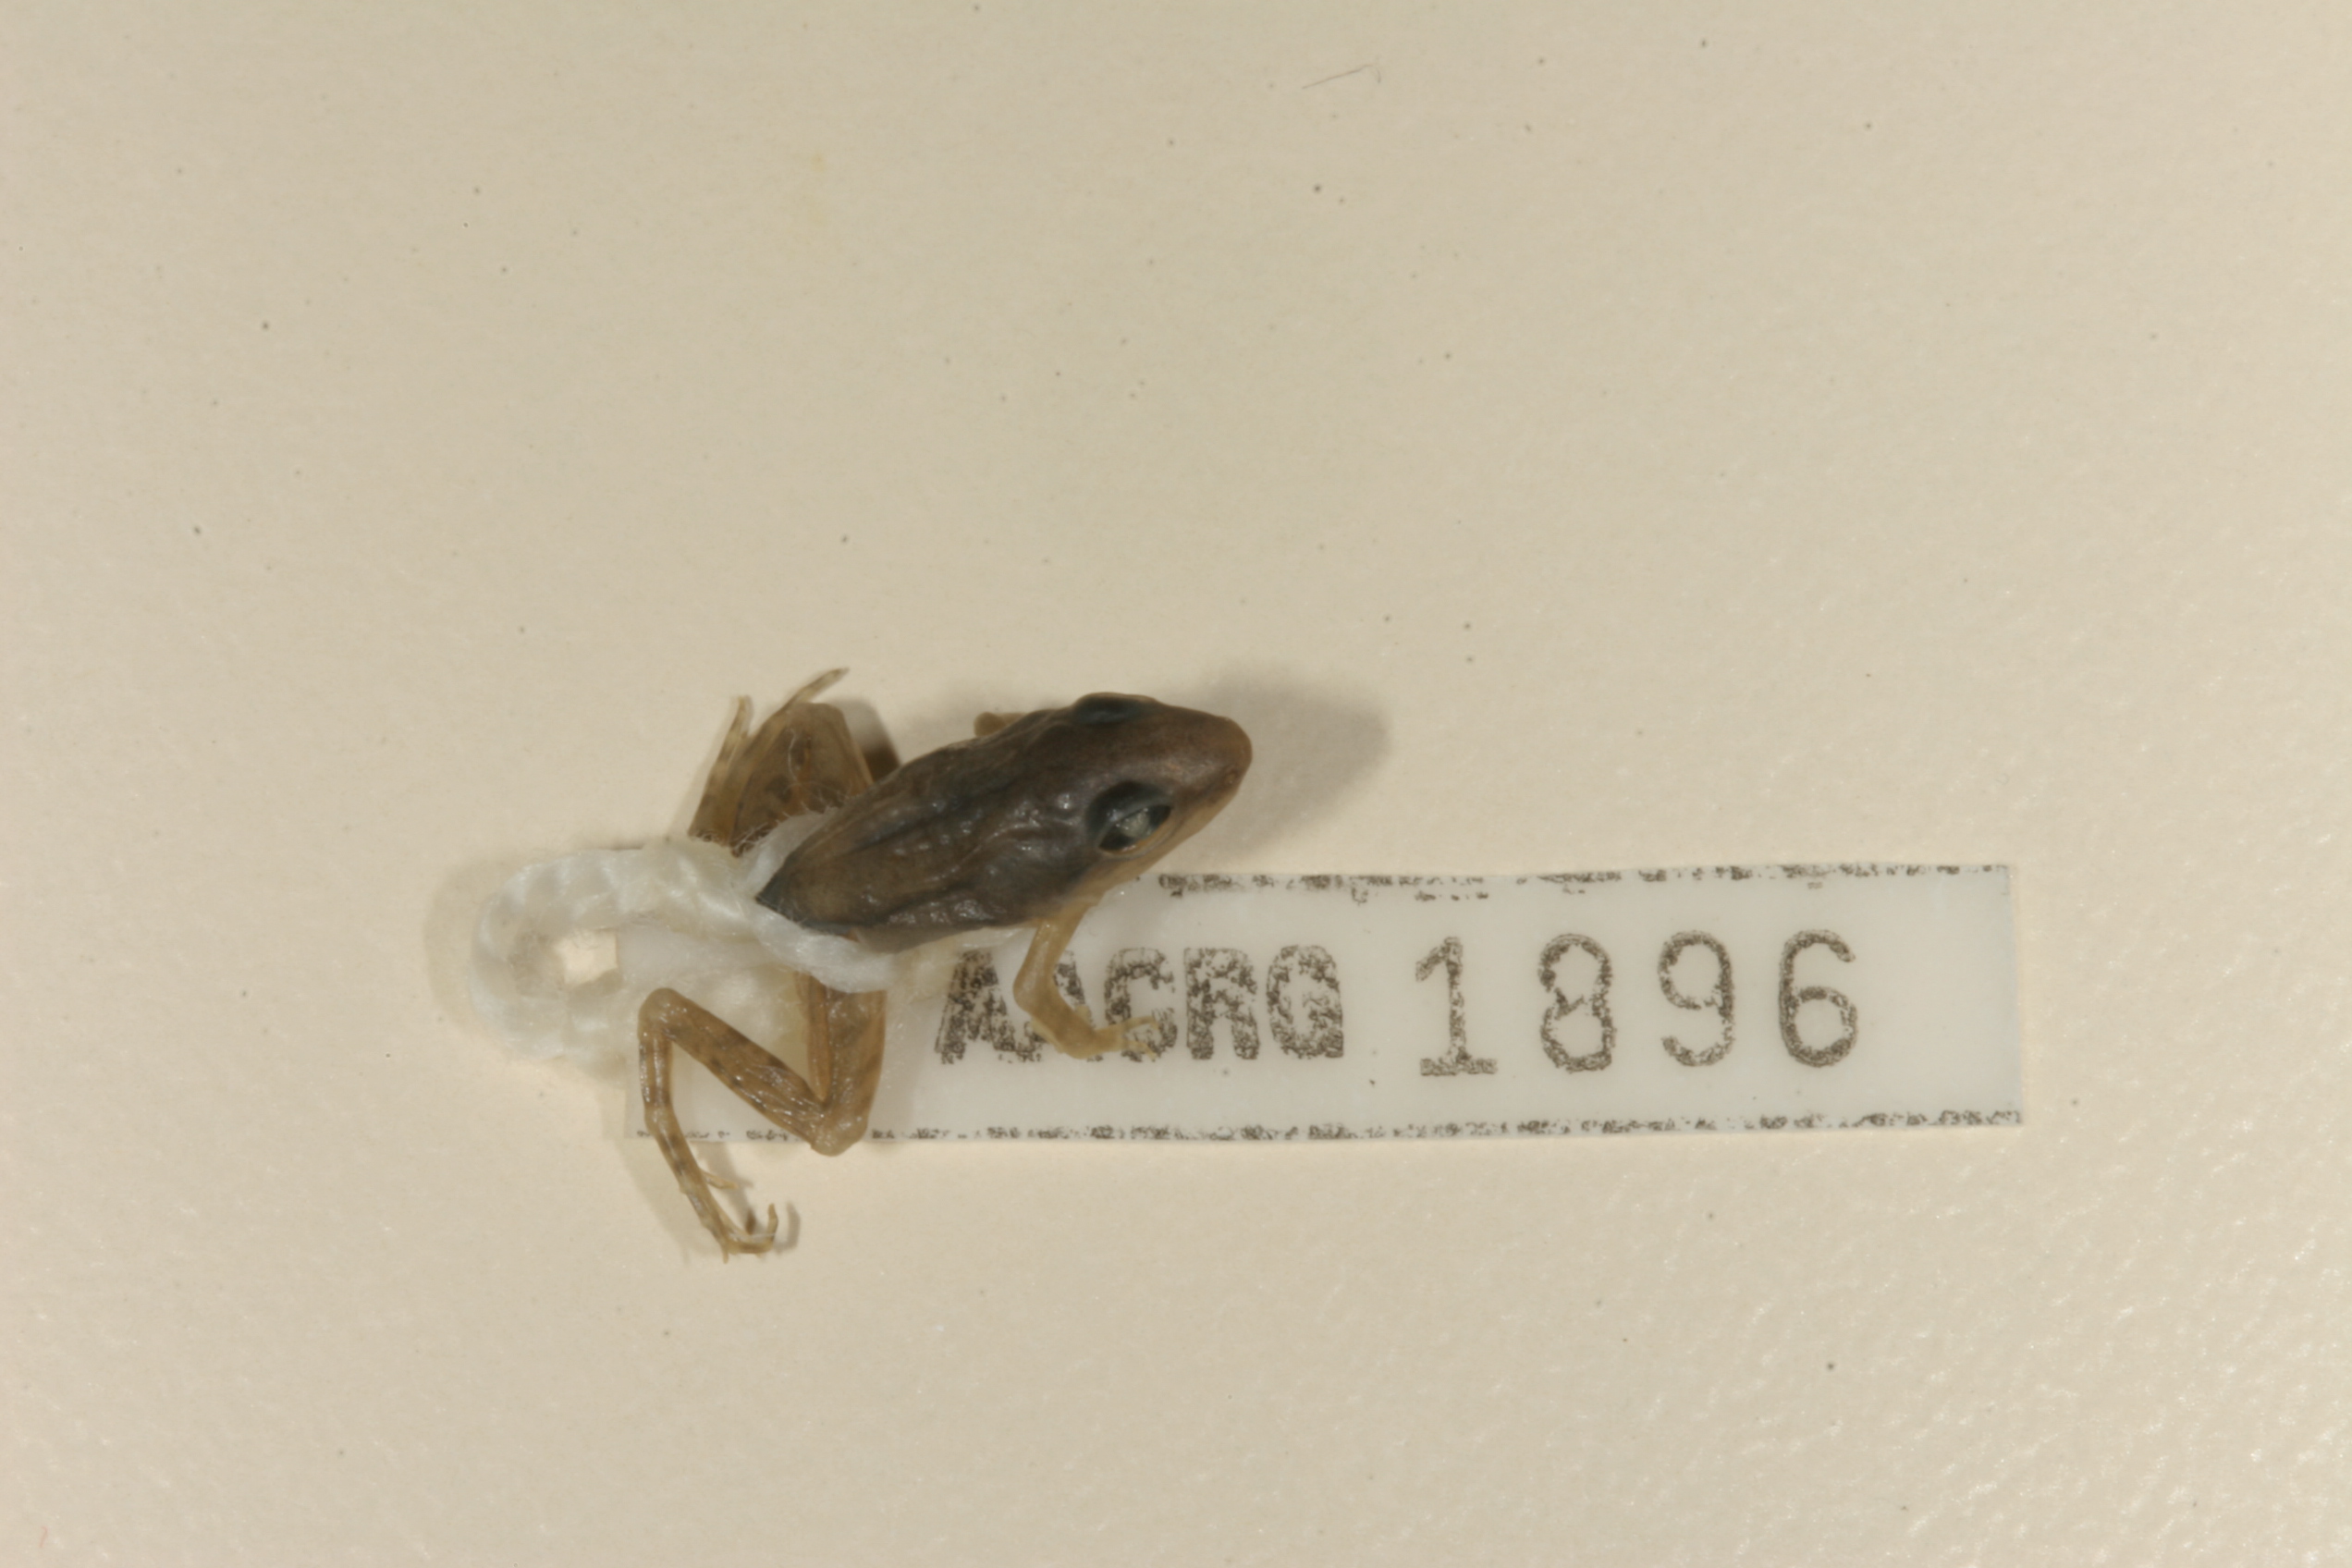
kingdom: Animalia
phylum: Chordata
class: Amphibia
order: Anura
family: Ptychadenidae
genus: Ptychadena
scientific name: Ptychadena anchietae
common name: Anchieta's ridged frog
